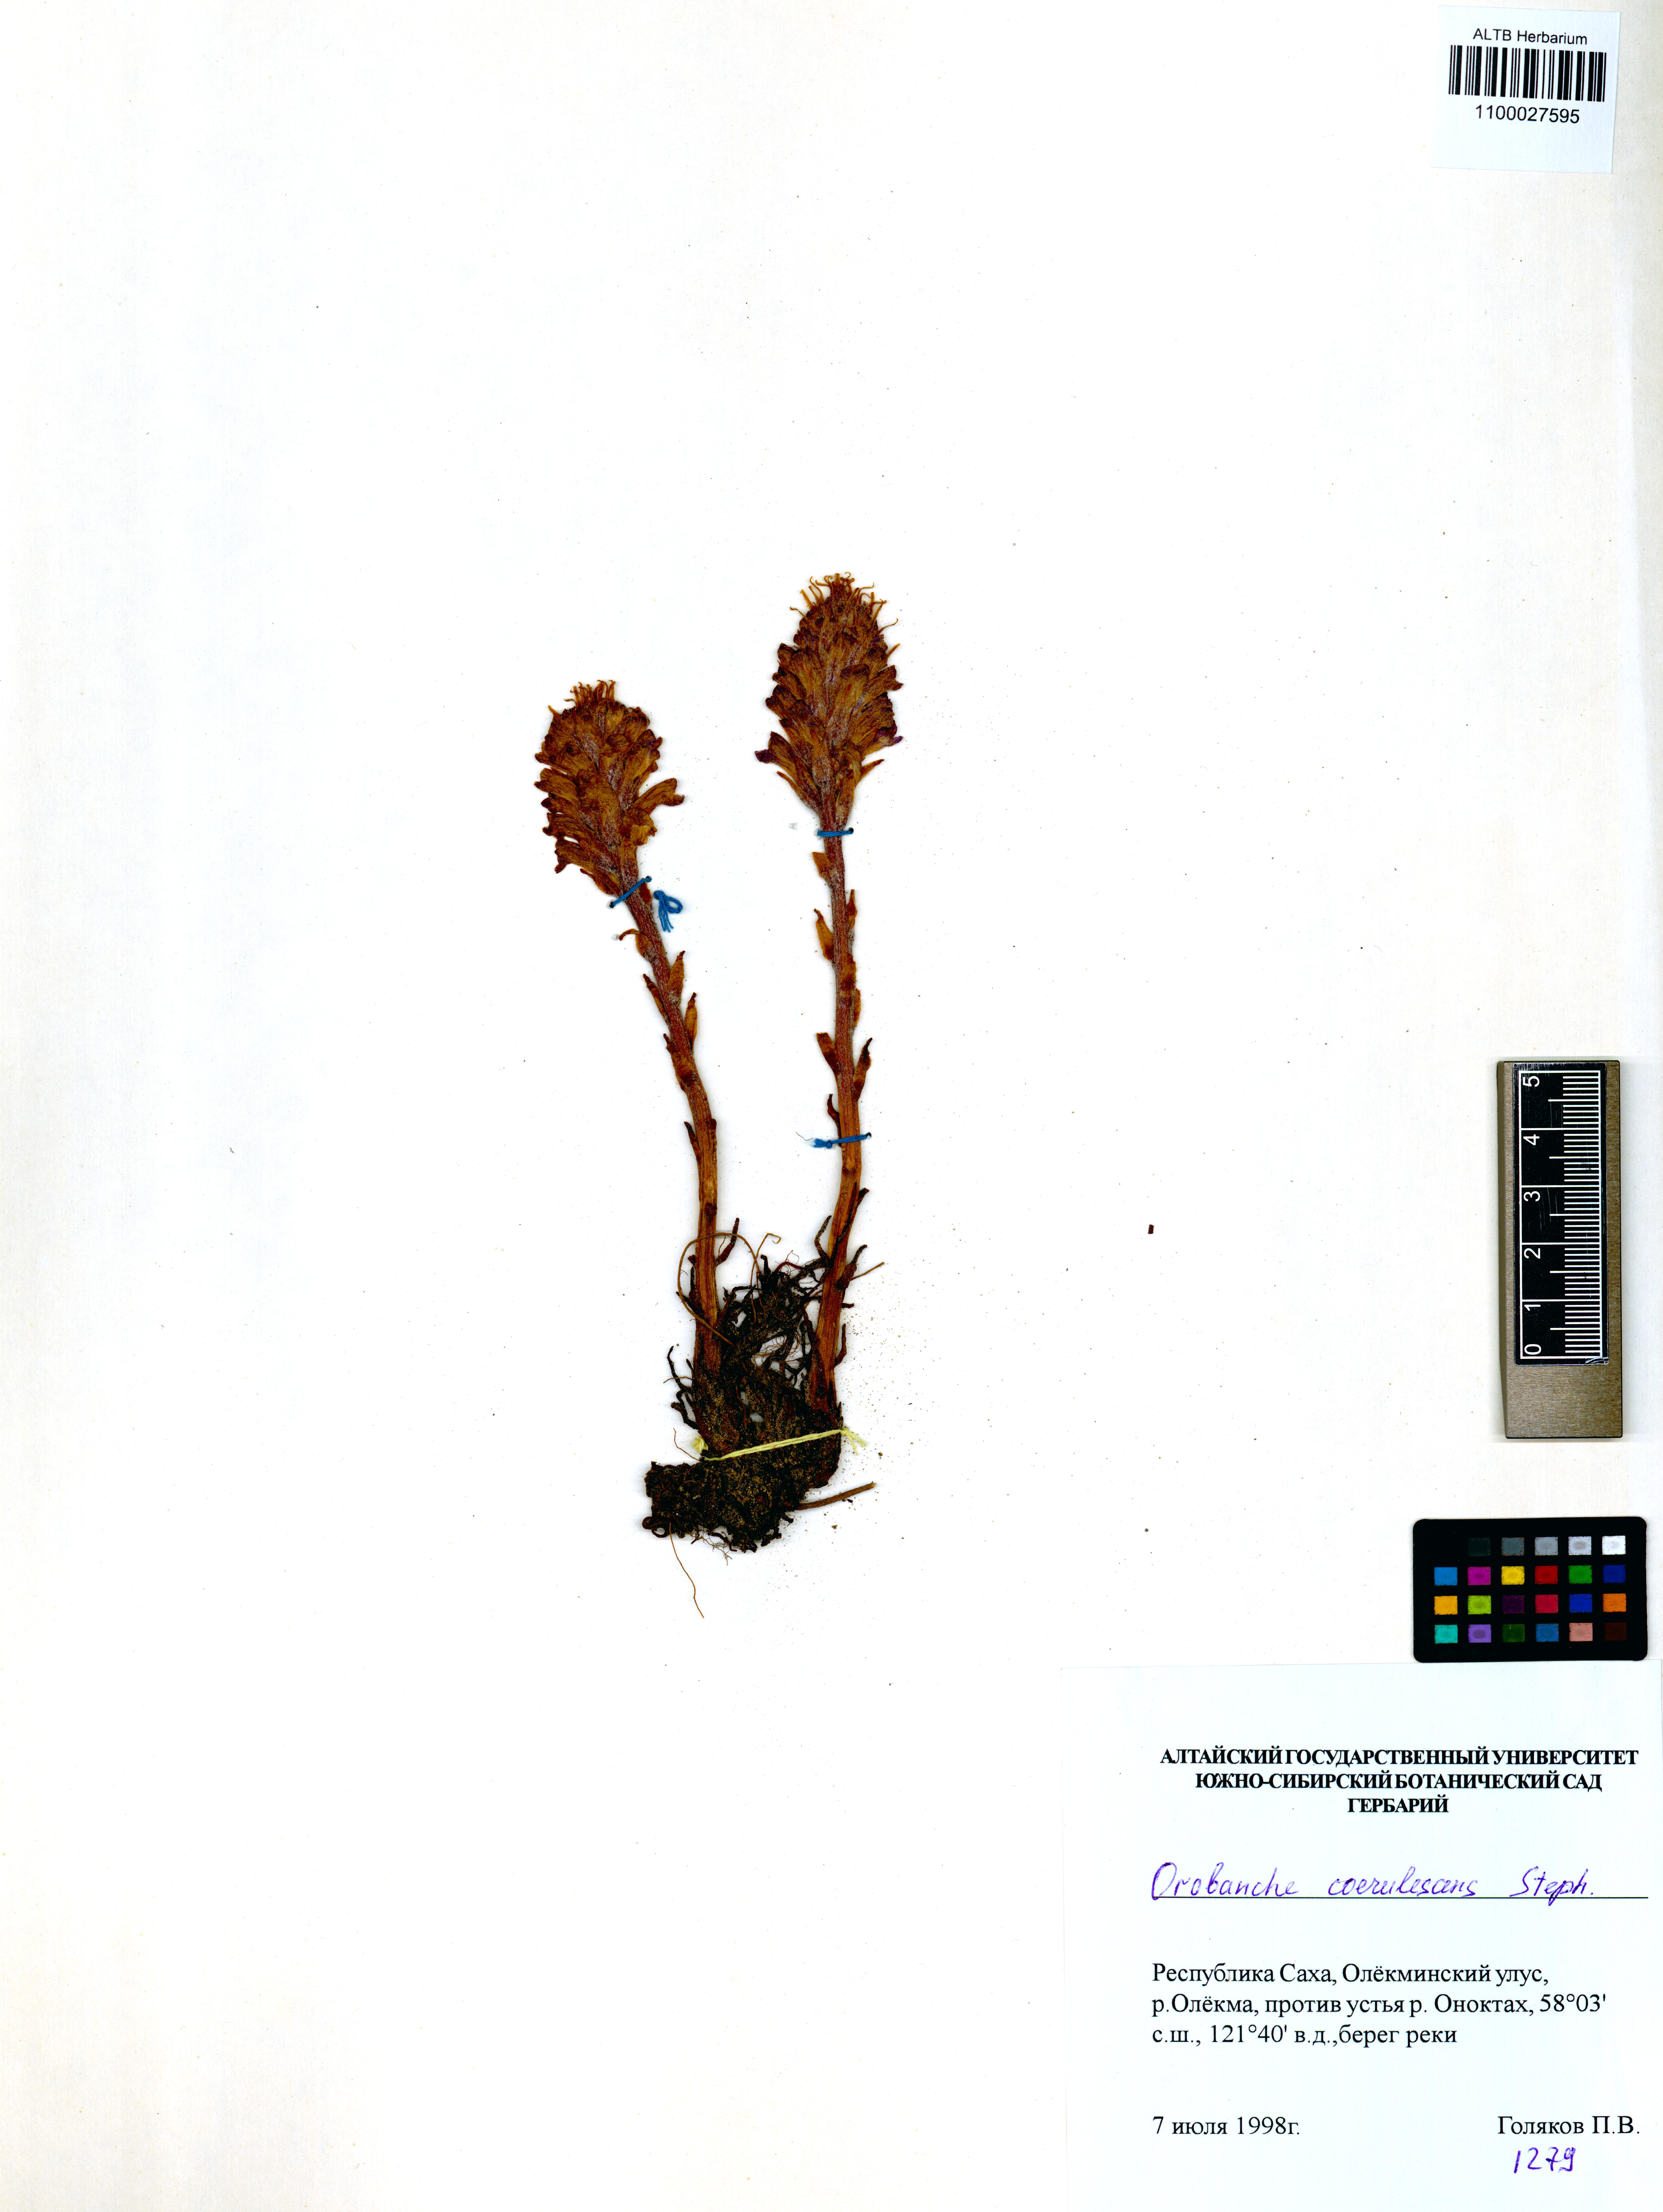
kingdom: Plantae
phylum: Tracheophyta
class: Magnoliopsida
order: Lamiales
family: Orobanchaceae
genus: Orobanche
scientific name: Orobanche coerulescens
